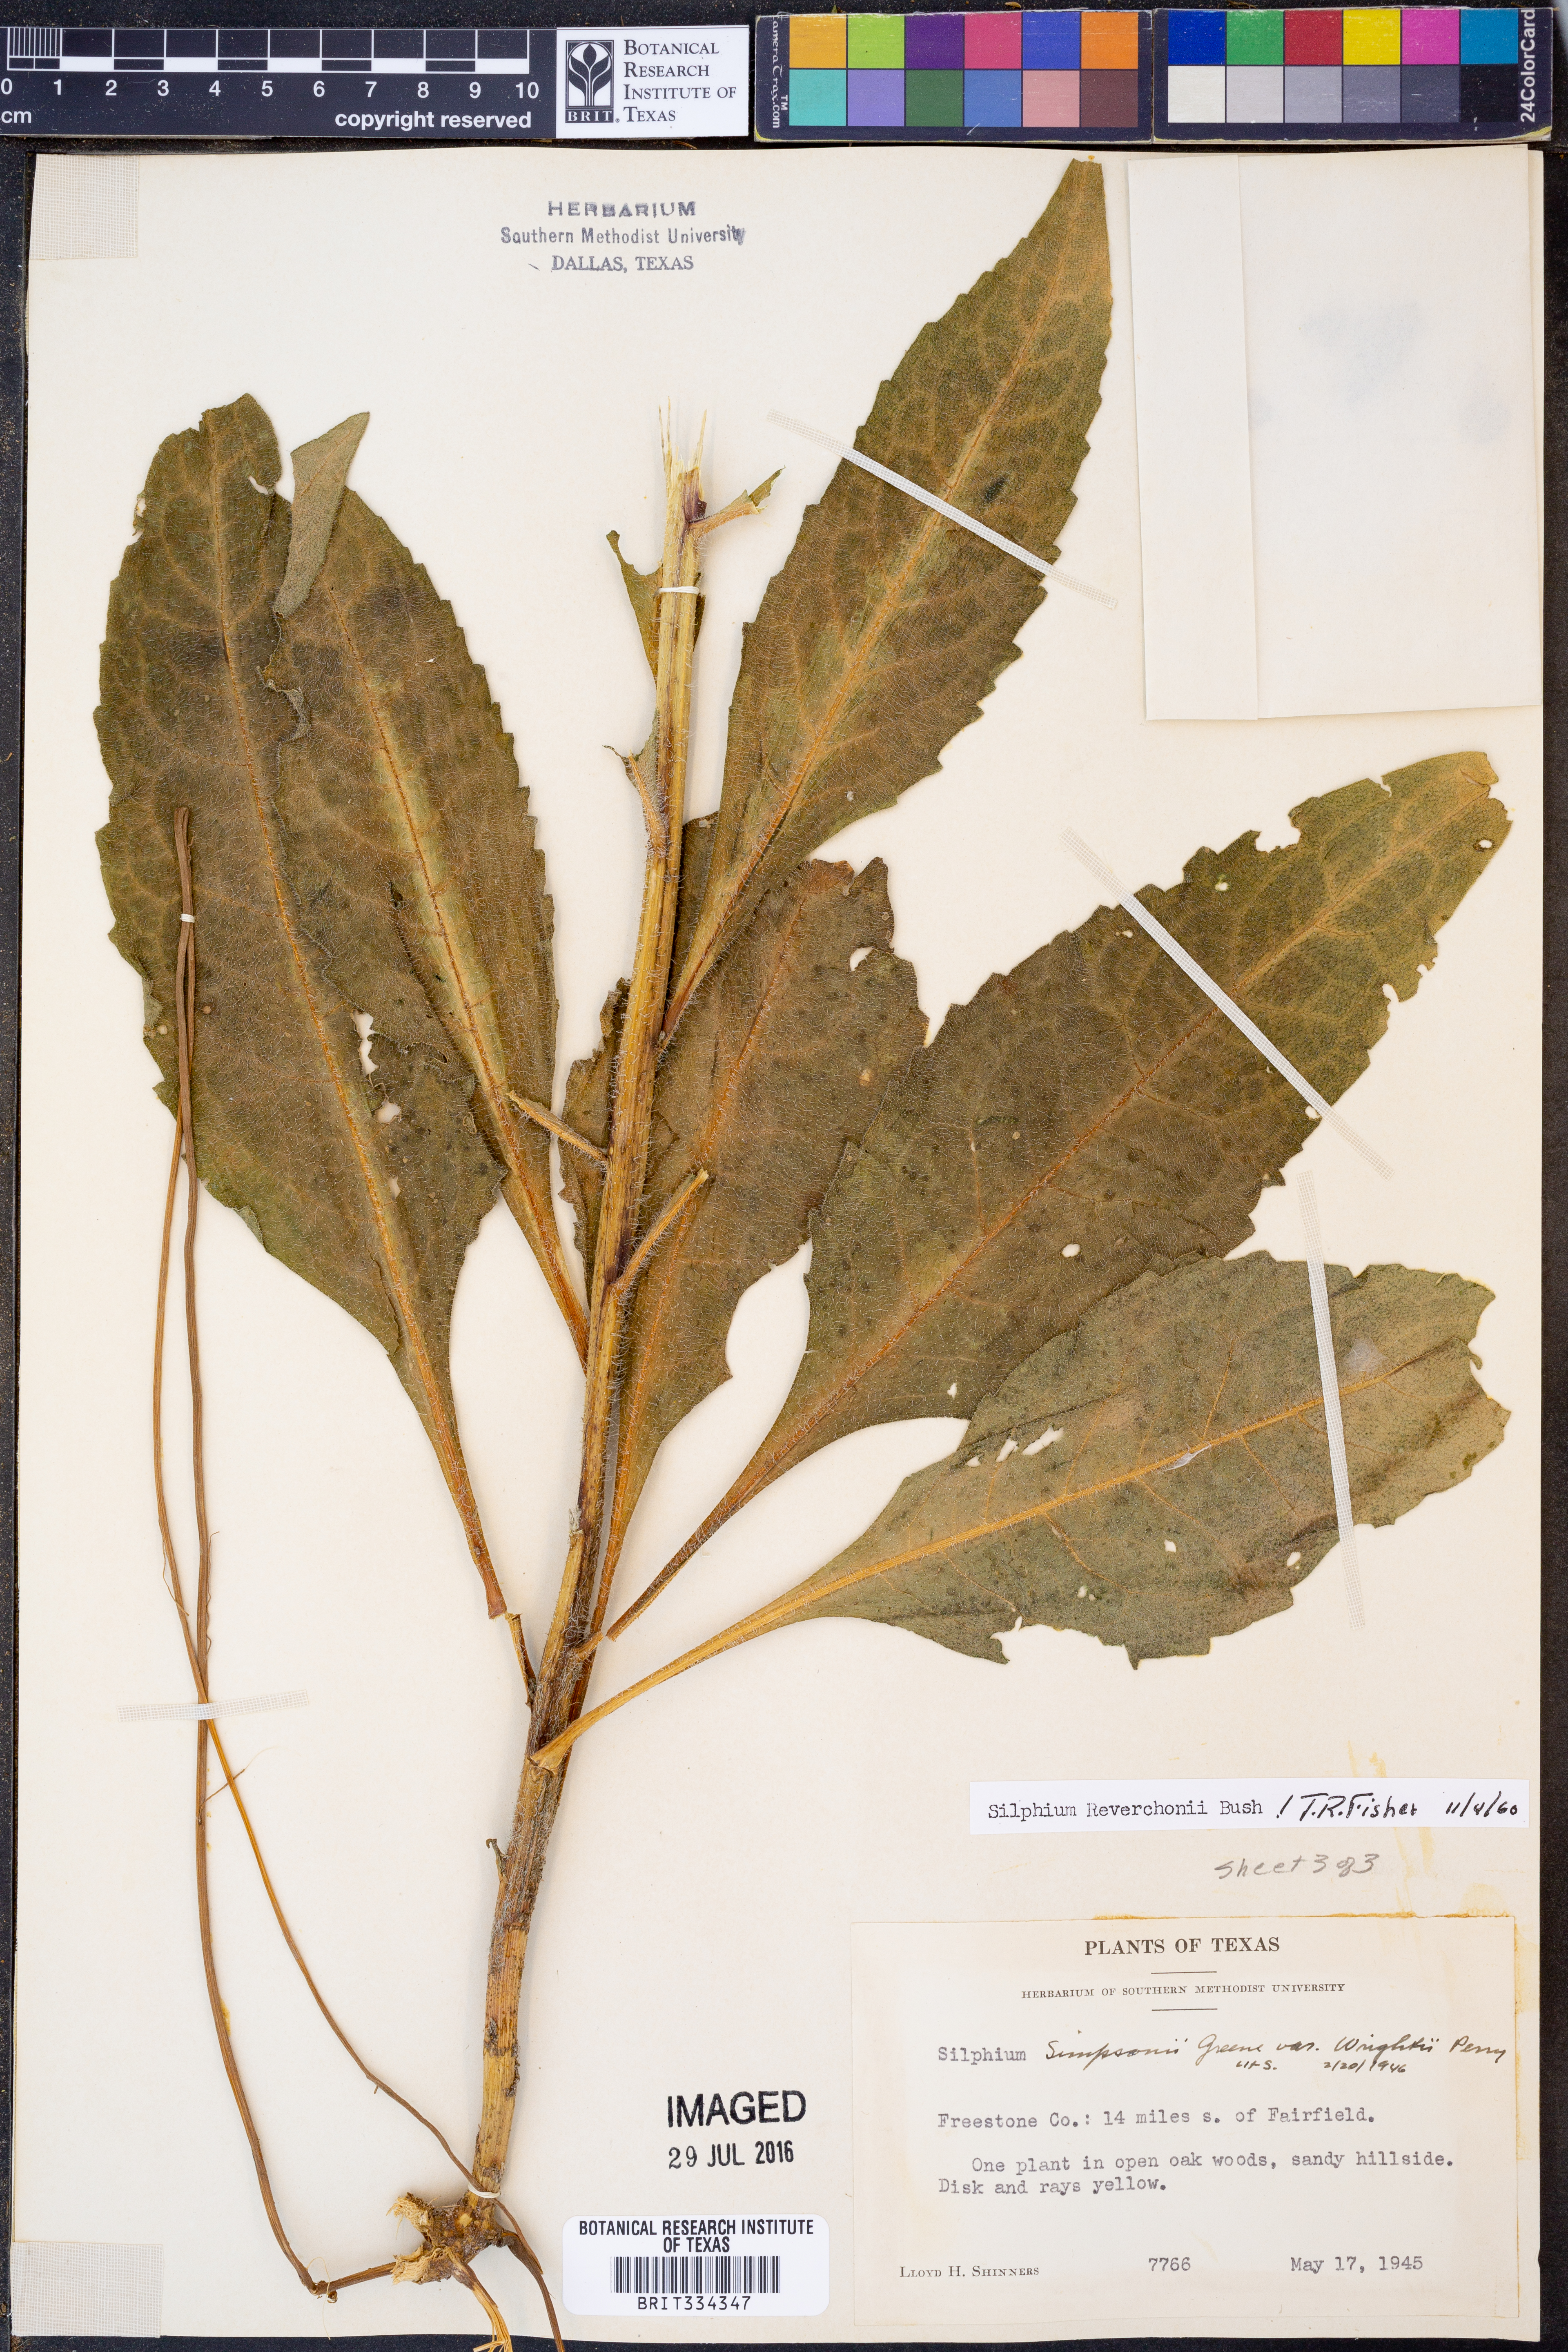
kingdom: Plantae
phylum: Tracheophyta
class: Magnoliopsida
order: Asterales
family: Asteraceae
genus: Silphium
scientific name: Silphium radula
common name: Roughleaf rosinweed
